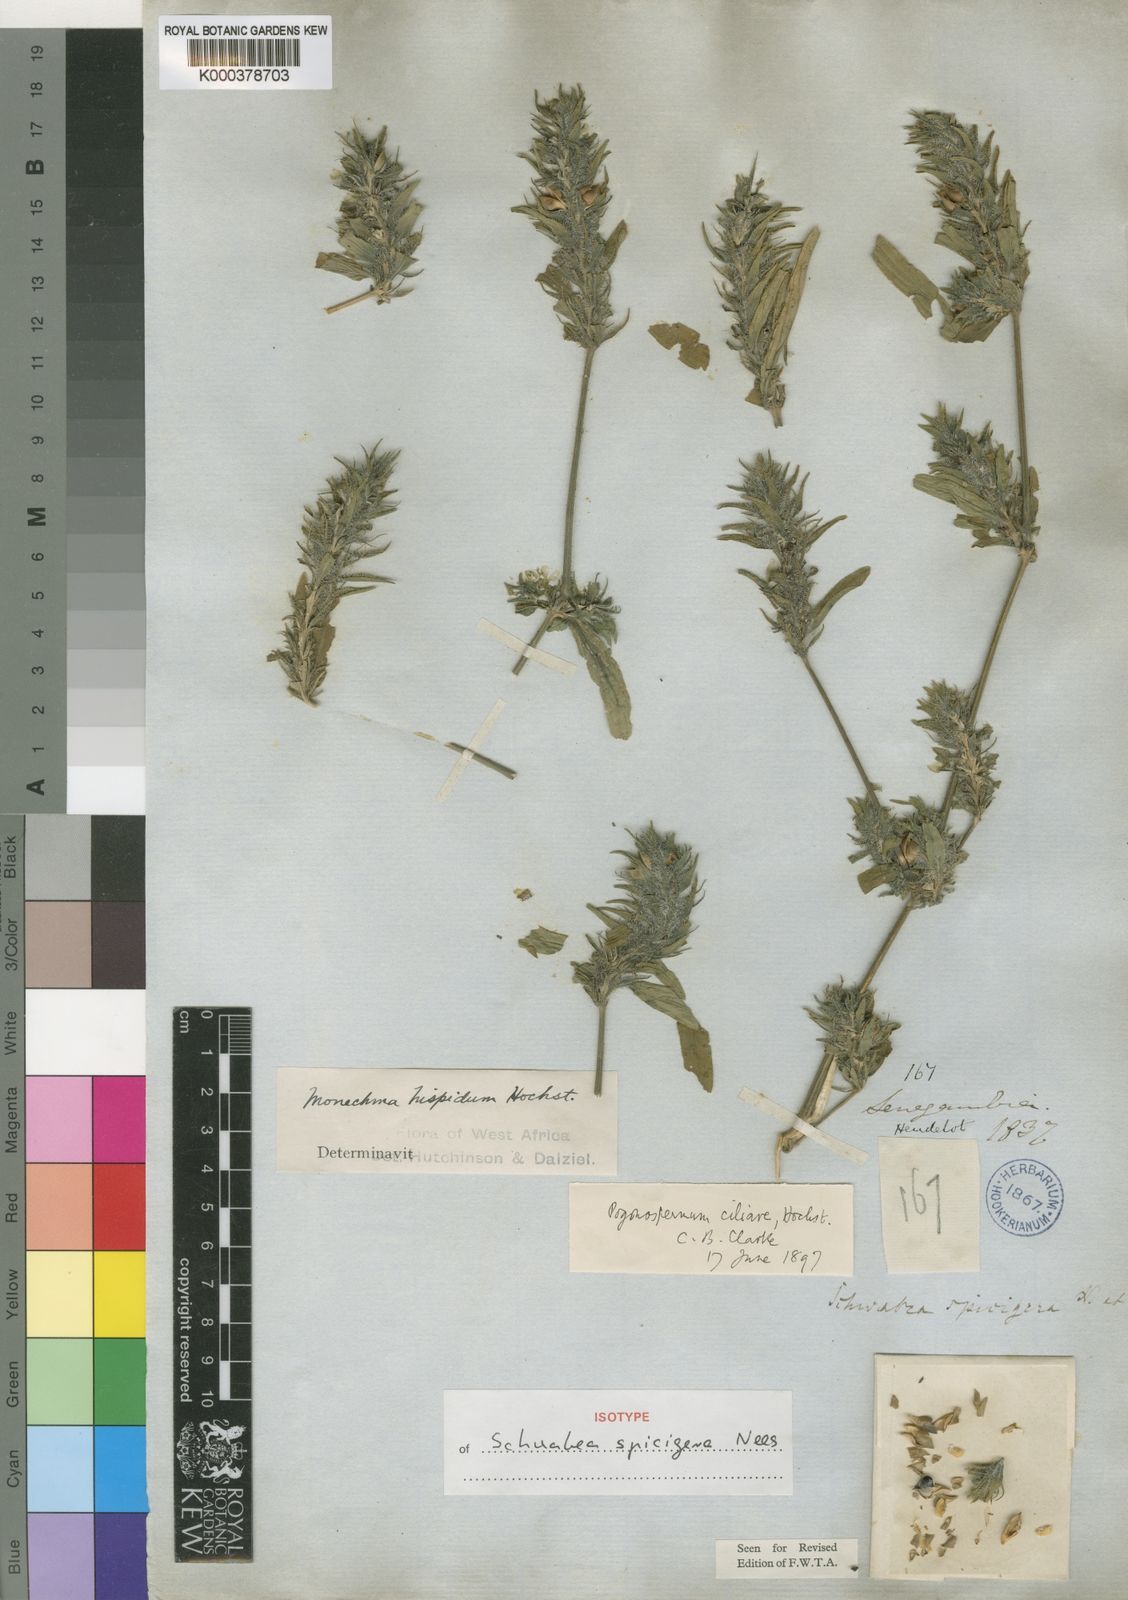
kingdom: Plantae
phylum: Tracheophyta
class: Magnoliopsida
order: Lamiales
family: Acanthaceae
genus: Pogonospermum
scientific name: Pogonospermum ciliare
